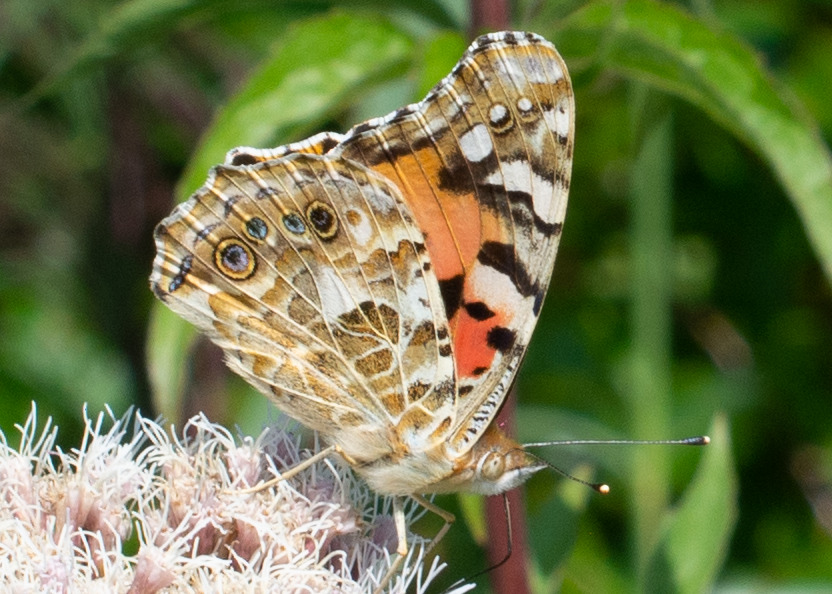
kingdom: Animalia
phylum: Arthropoda
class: Insecta
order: Lepidoptera
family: Nymphalidae
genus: Vanessa
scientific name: Vanessa cardui
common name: Tidselsommerfugl
